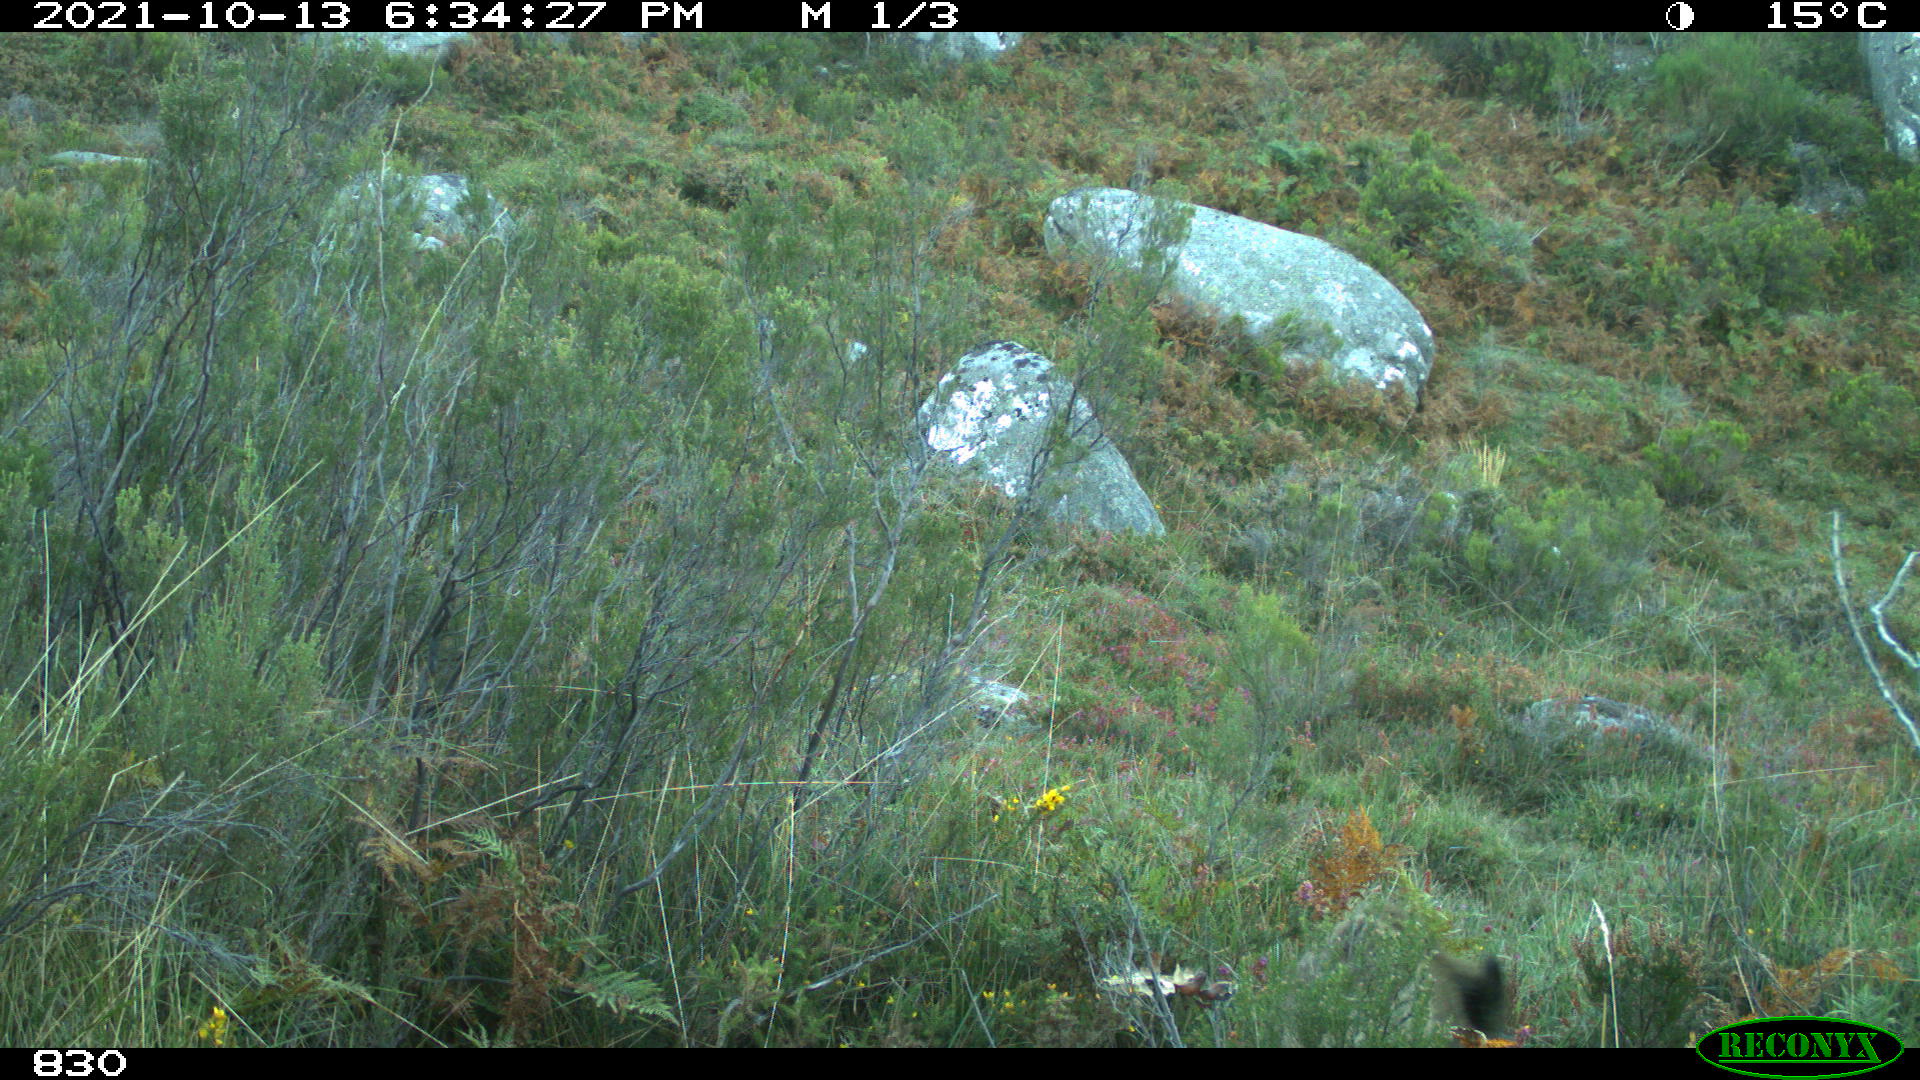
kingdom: Animalia
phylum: Chordata
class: Mammalia
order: Artiodactyla
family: Suidae
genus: Sus
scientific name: Sus scrofa
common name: Wild boar
